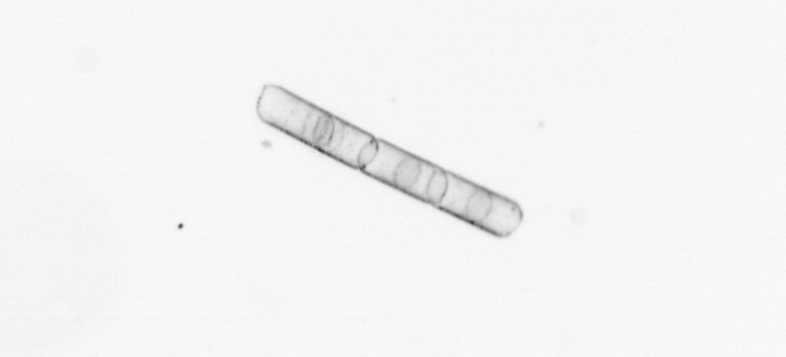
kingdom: Chromista
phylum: Ochrophyta
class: Bacillariophyceae
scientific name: Bacillariophyceae
